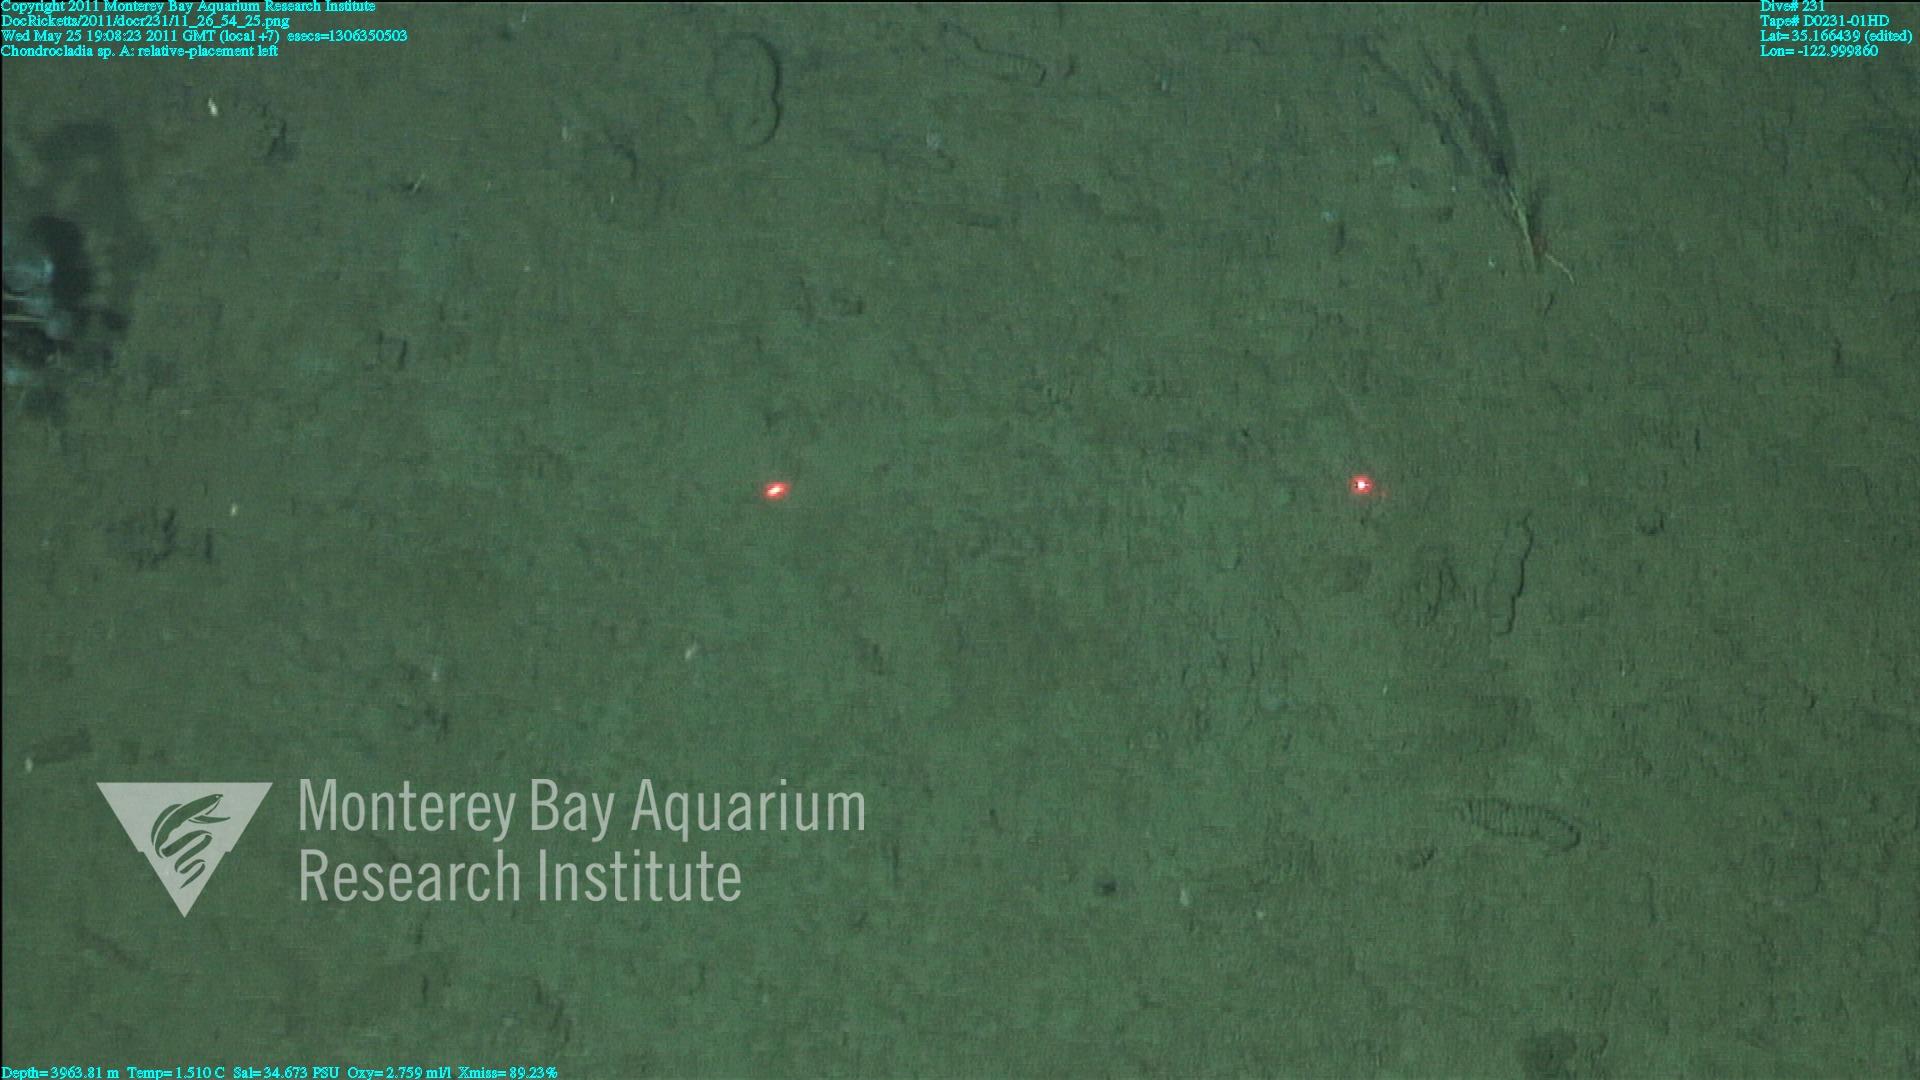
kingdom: Animalia
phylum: Porifera
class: Demospongiae
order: Poecilosclerida
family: Cladorhizidae
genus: Chondrocladia
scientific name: Chondrocladia
